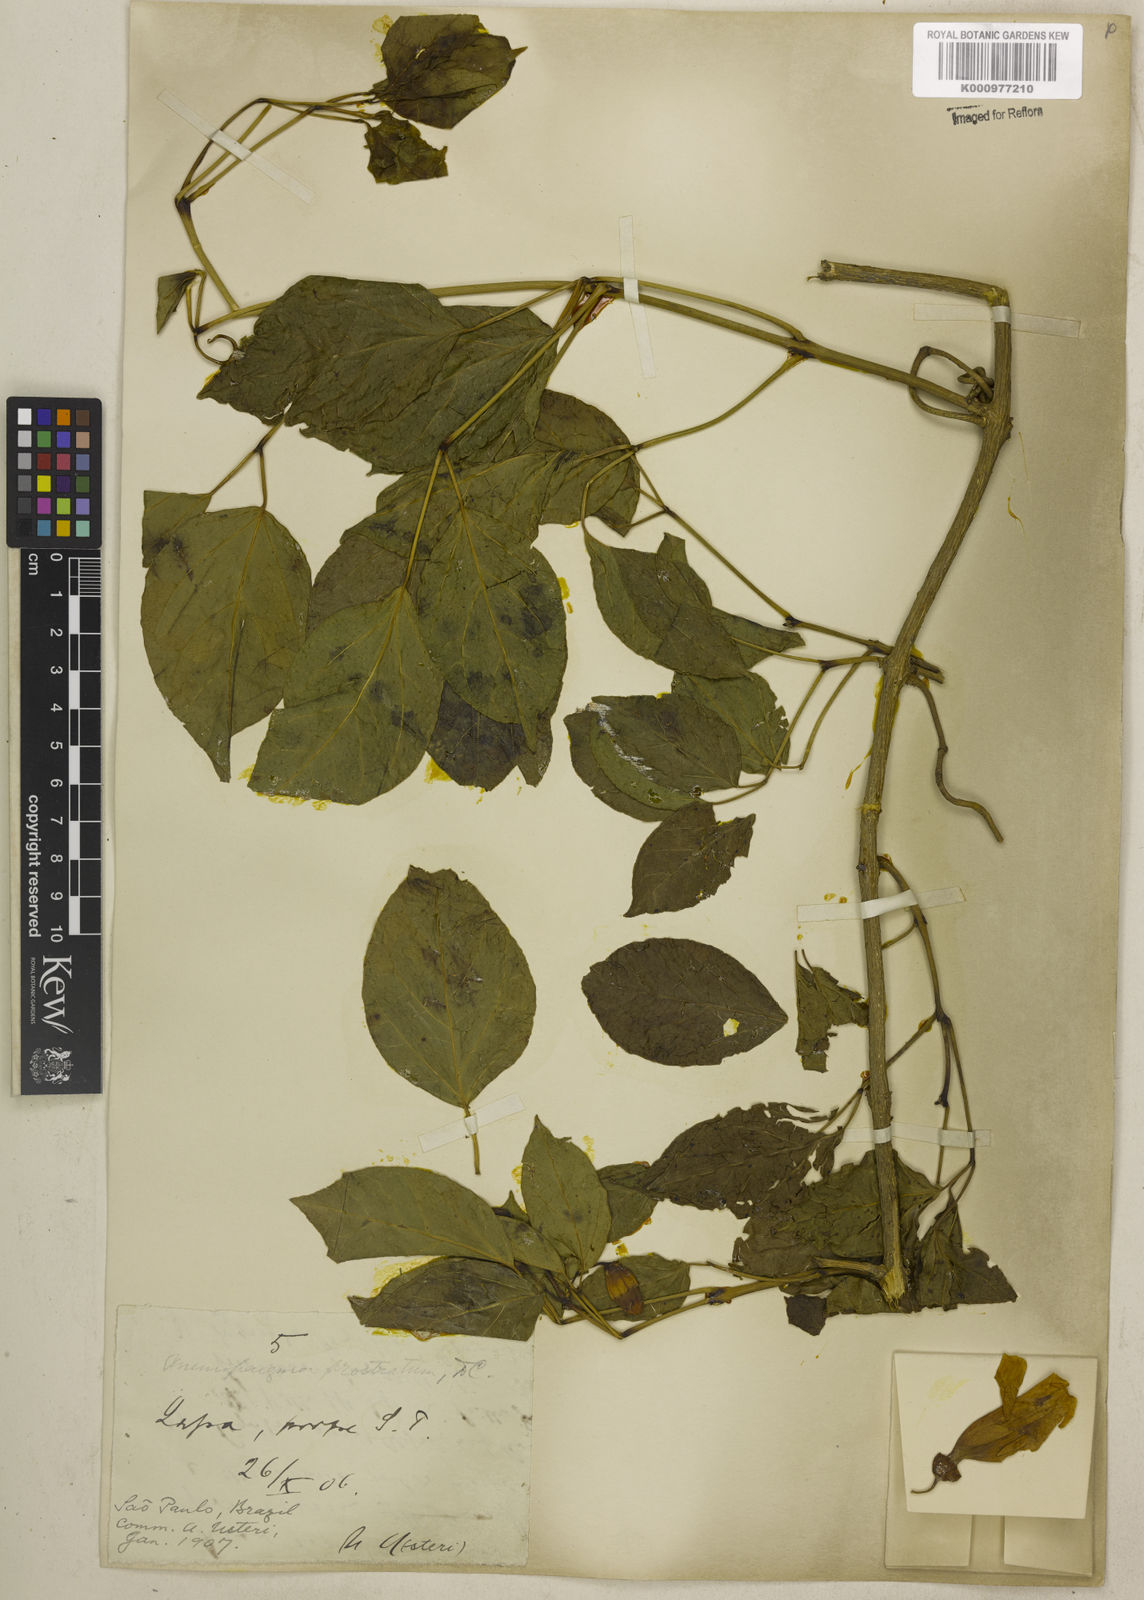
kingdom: Plantae
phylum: Tracheophyta
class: Magnoliopsida
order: Lamiales
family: Bignoniaceae
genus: Anemopaegma
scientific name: Anemopaegma prostratum
